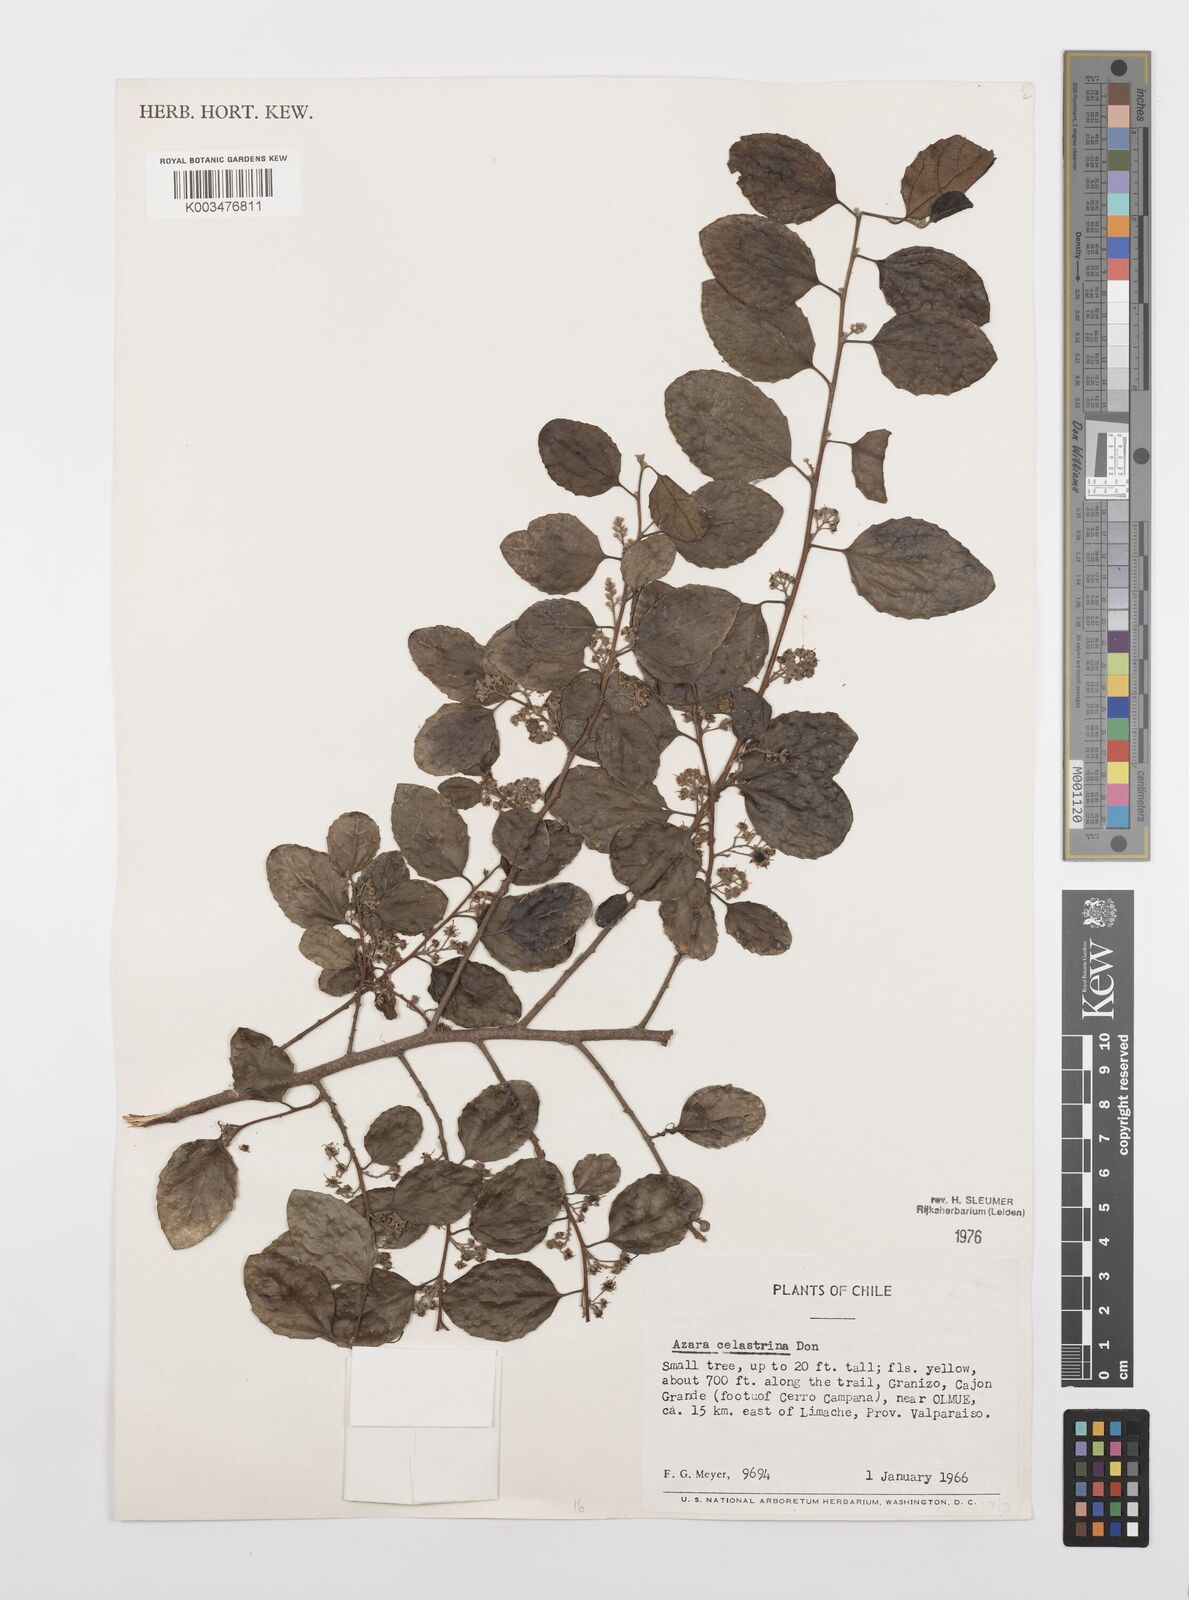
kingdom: Plantae
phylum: Tracheophyta
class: Magnoliopsida
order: Malpighiales
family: Salicaceae
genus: Azara
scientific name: Azara celastrina
